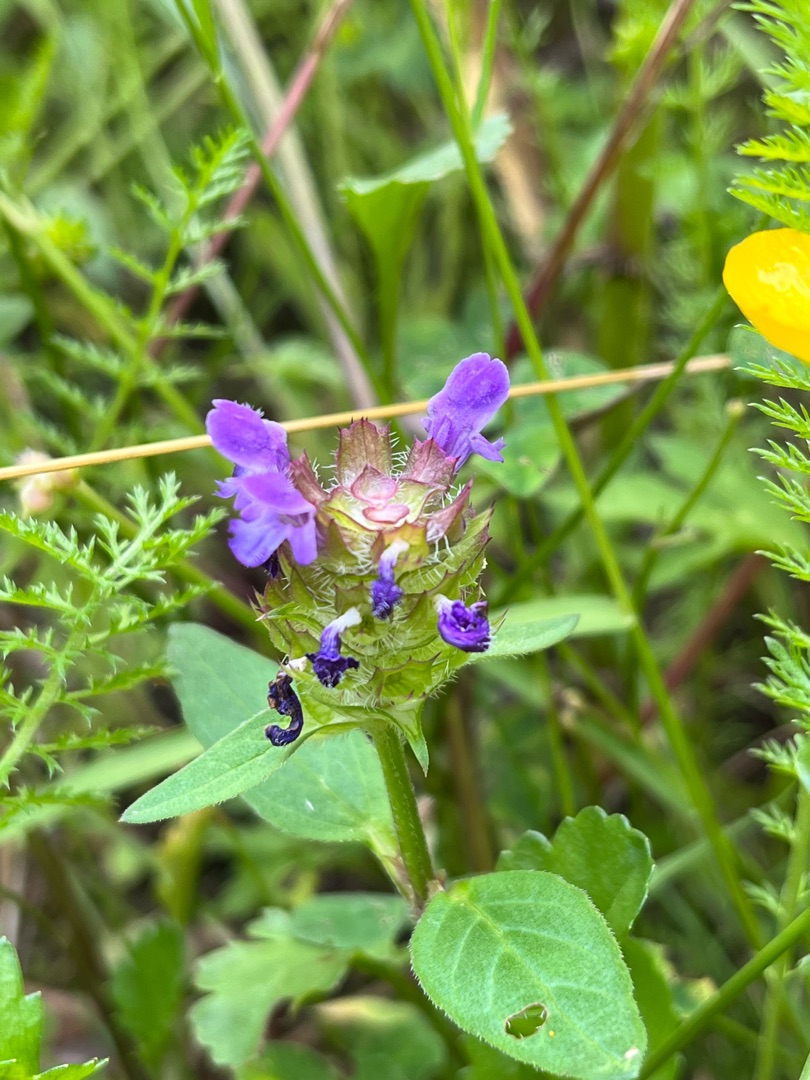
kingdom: Plantae
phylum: Tracheophyta
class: Magnoliopsida
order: Lamiales
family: Lamiaceae
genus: Prunella
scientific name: Prunella vulgaris
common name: Almindelig brunelle
